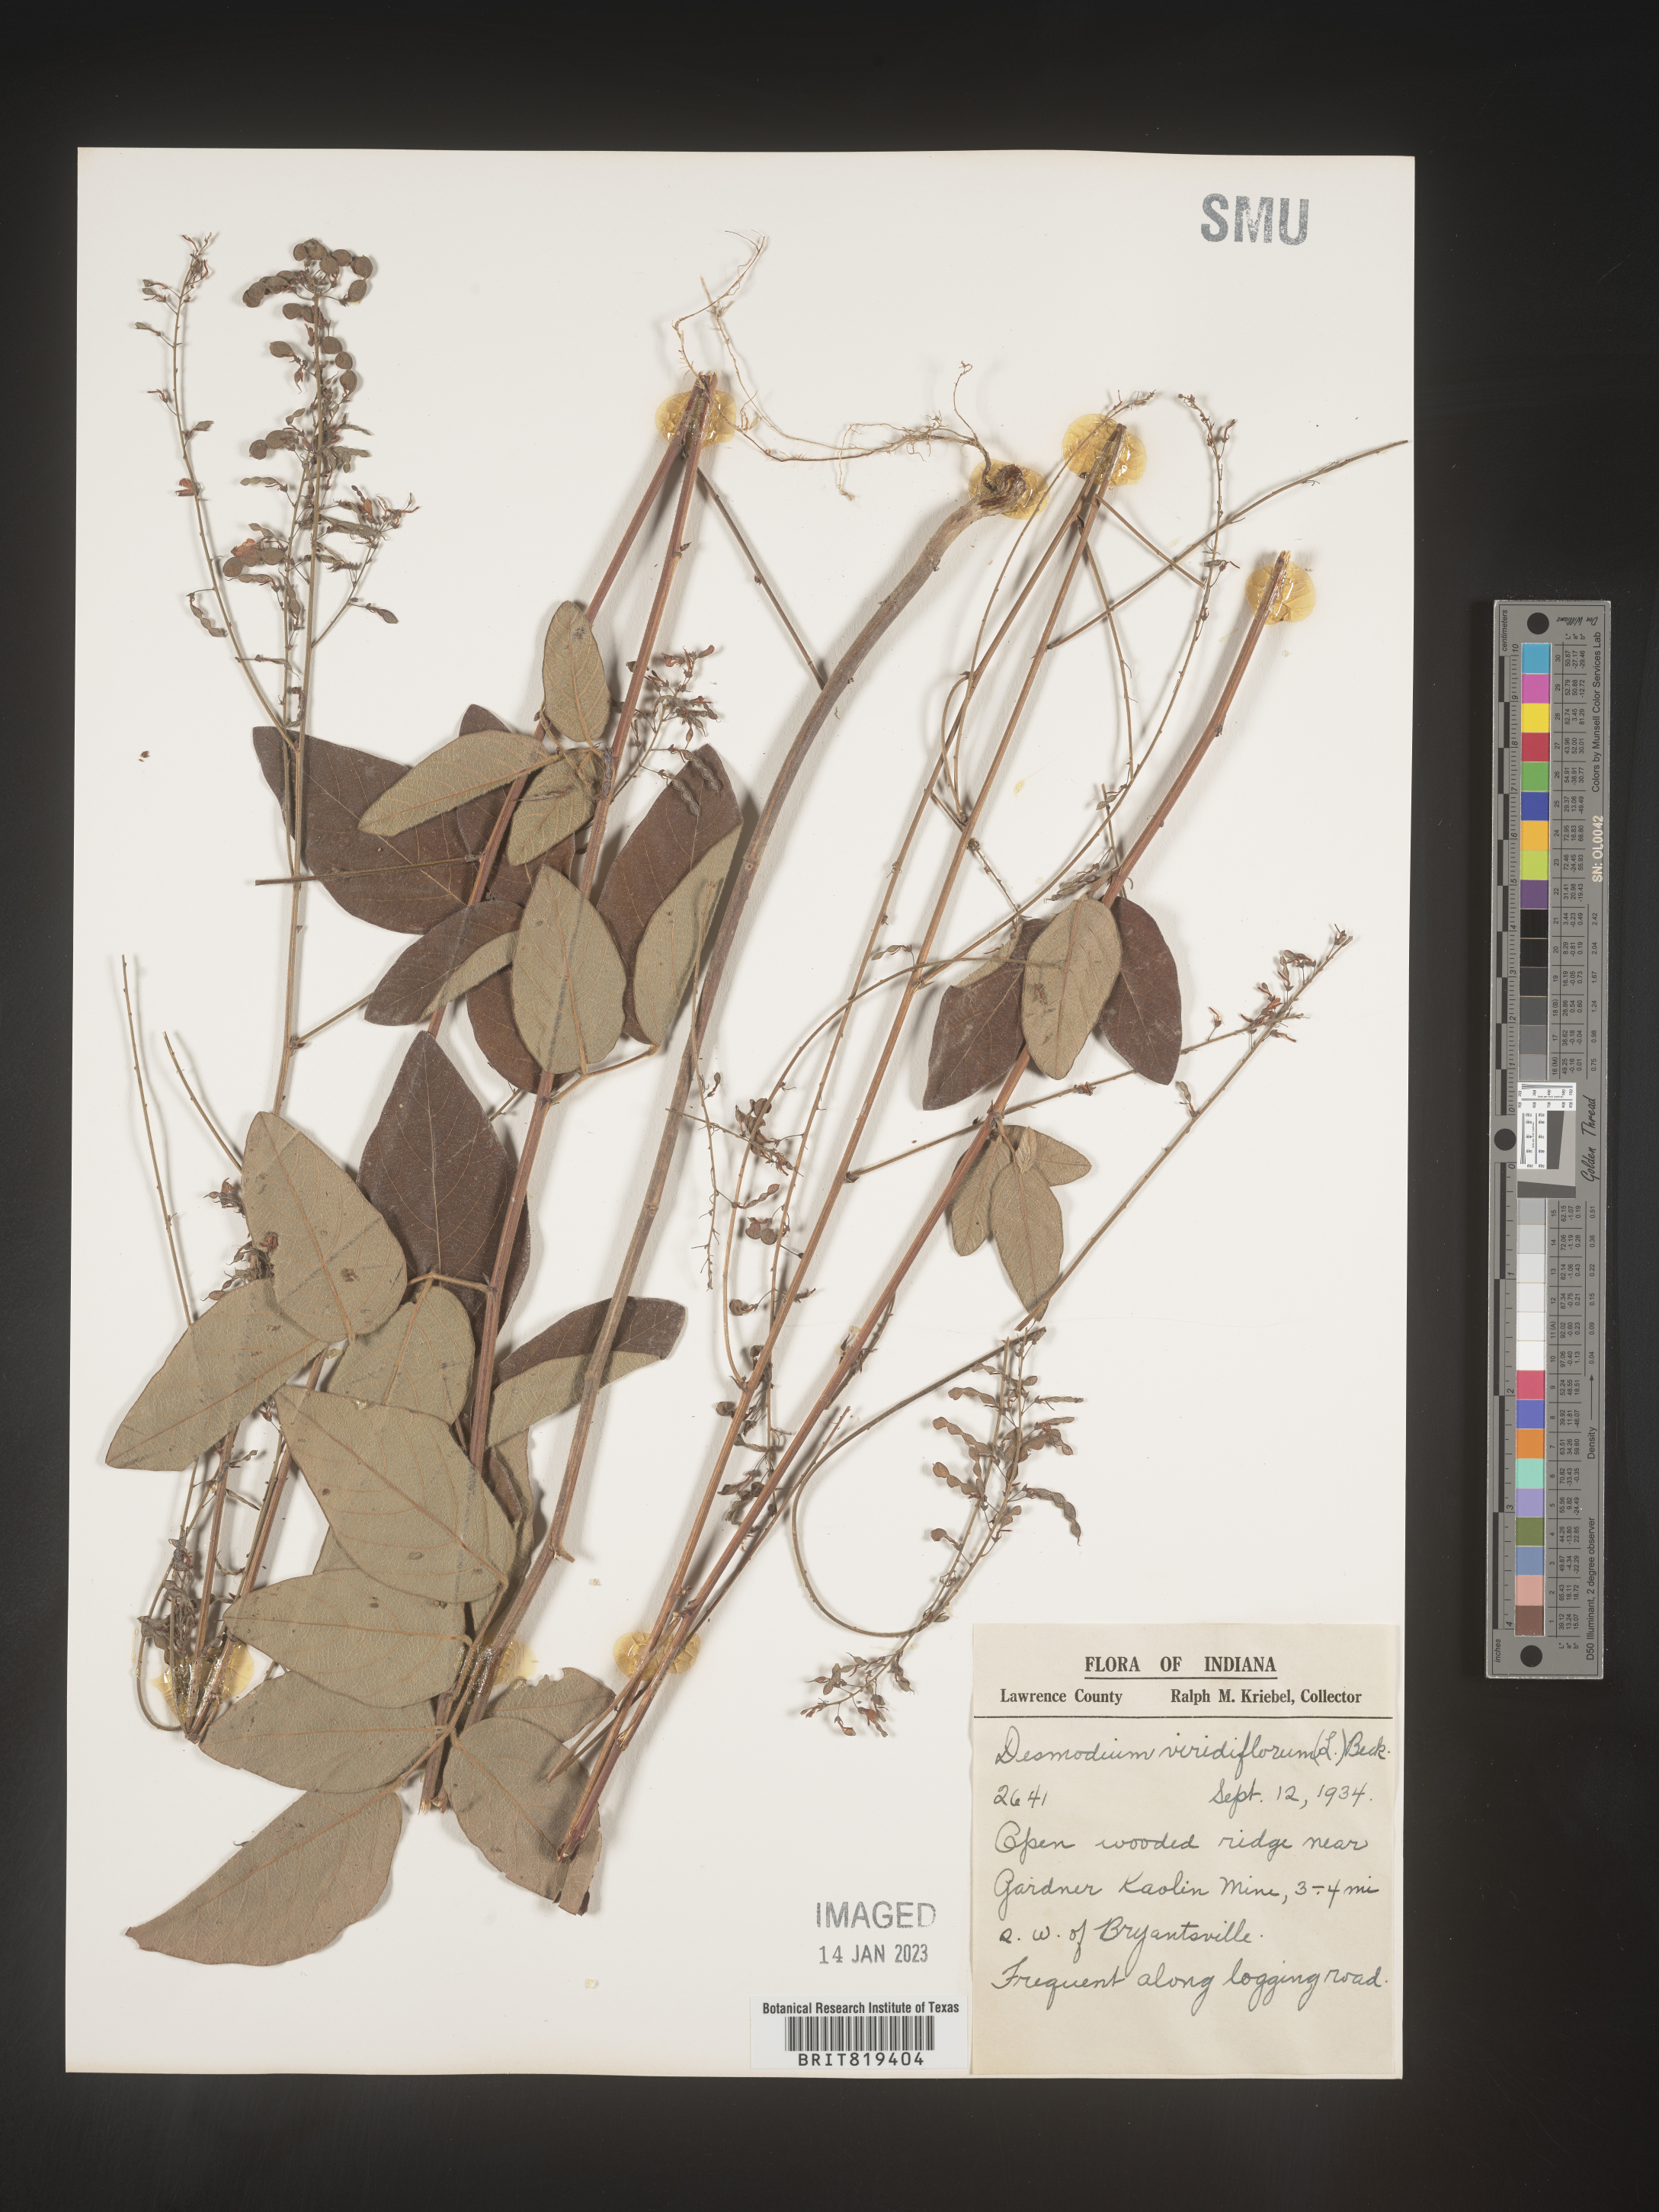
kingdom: Plantae
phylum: Tracheophyta
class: Magnoliopsida
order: Fabales
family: Fabaceae
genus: Desmodium
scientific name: Desmodium viridiflorum
